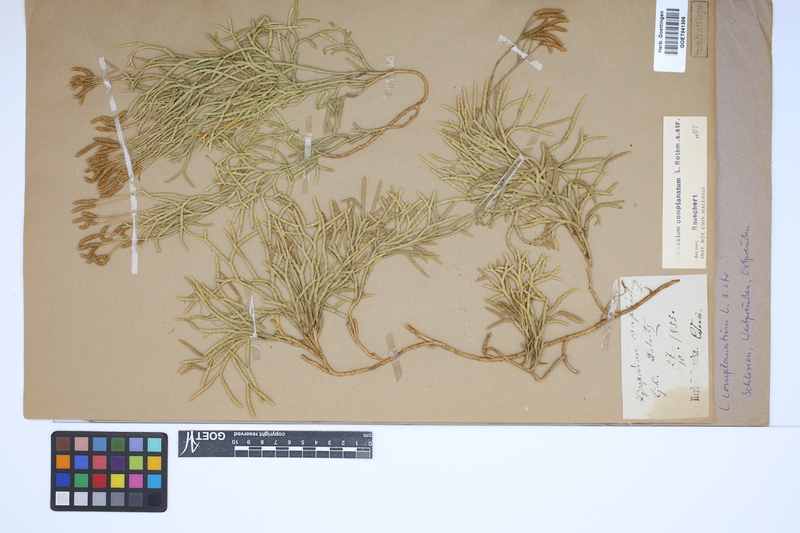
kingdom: Plantae
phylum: Tracheophyta
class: Lycopodiopsida
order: Lycopodiales
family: Lycopodiaceae
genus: Diphasiastrum
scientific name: Diphasiastrum complanatum
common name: Northern running-pine
